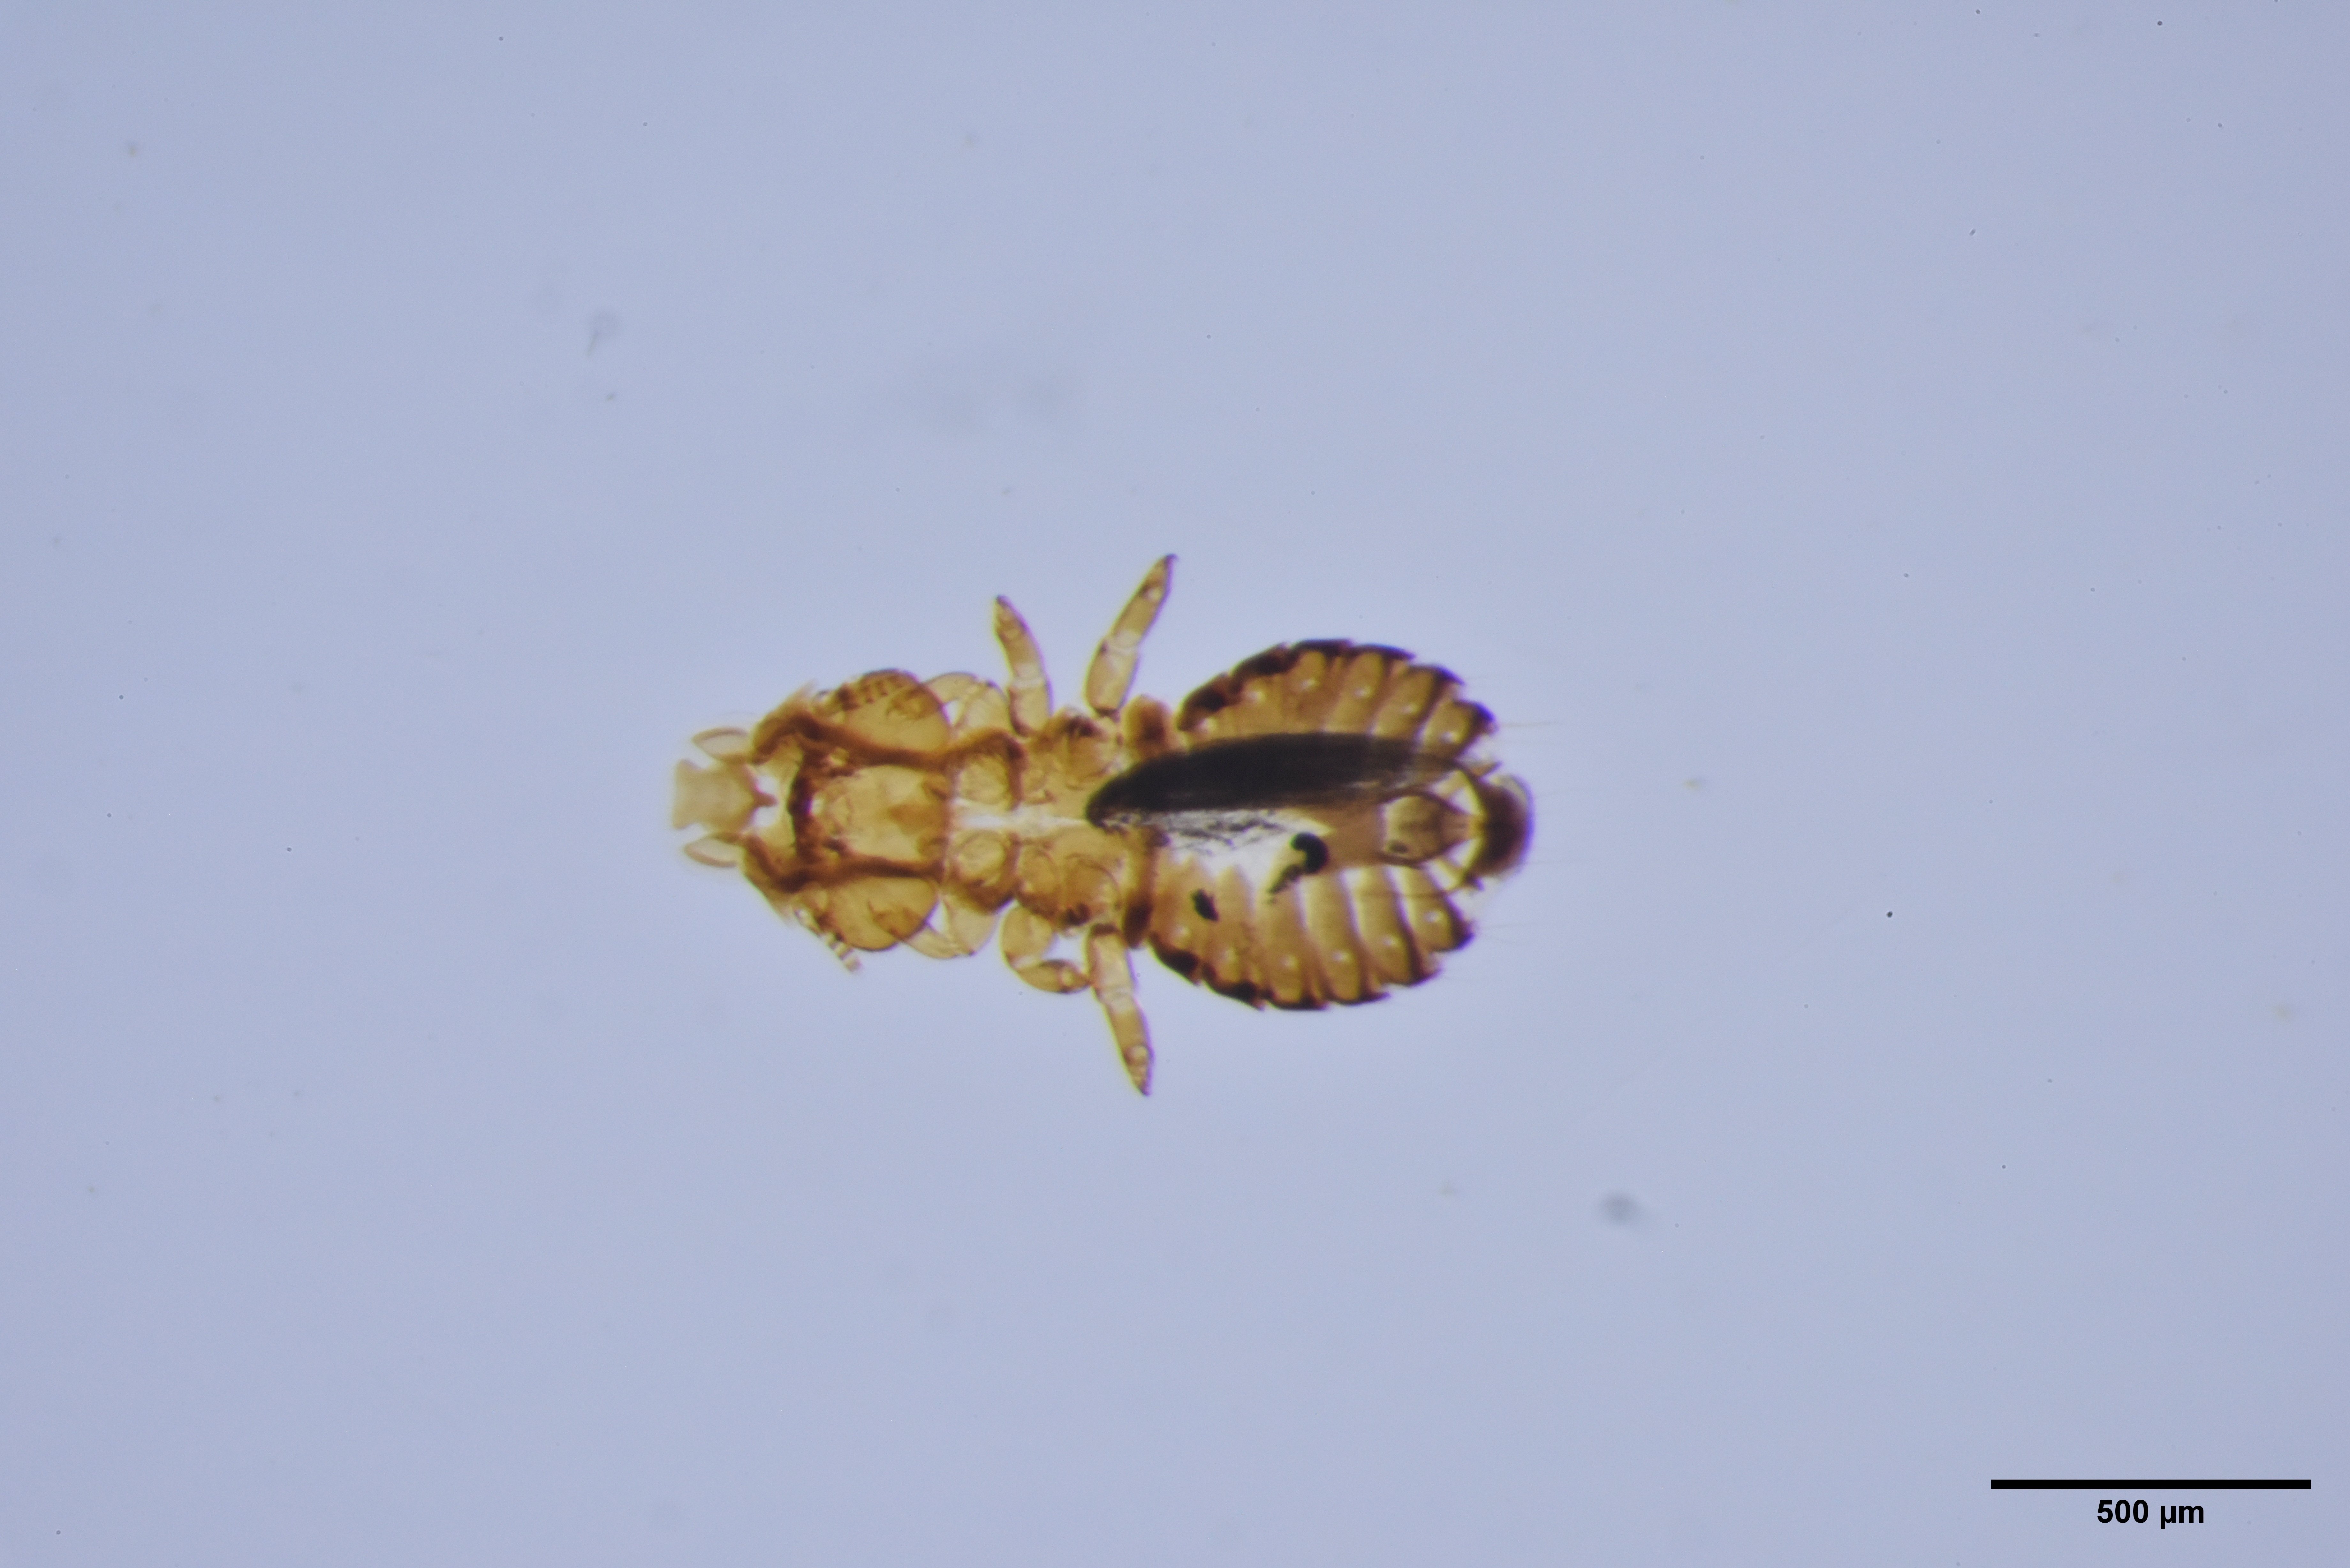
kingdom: Animalia
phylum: Arthropoda
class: Insecta
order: Psocodea
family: Philopteridae
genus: Anatoecus
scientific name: Anatoecus dentatus
